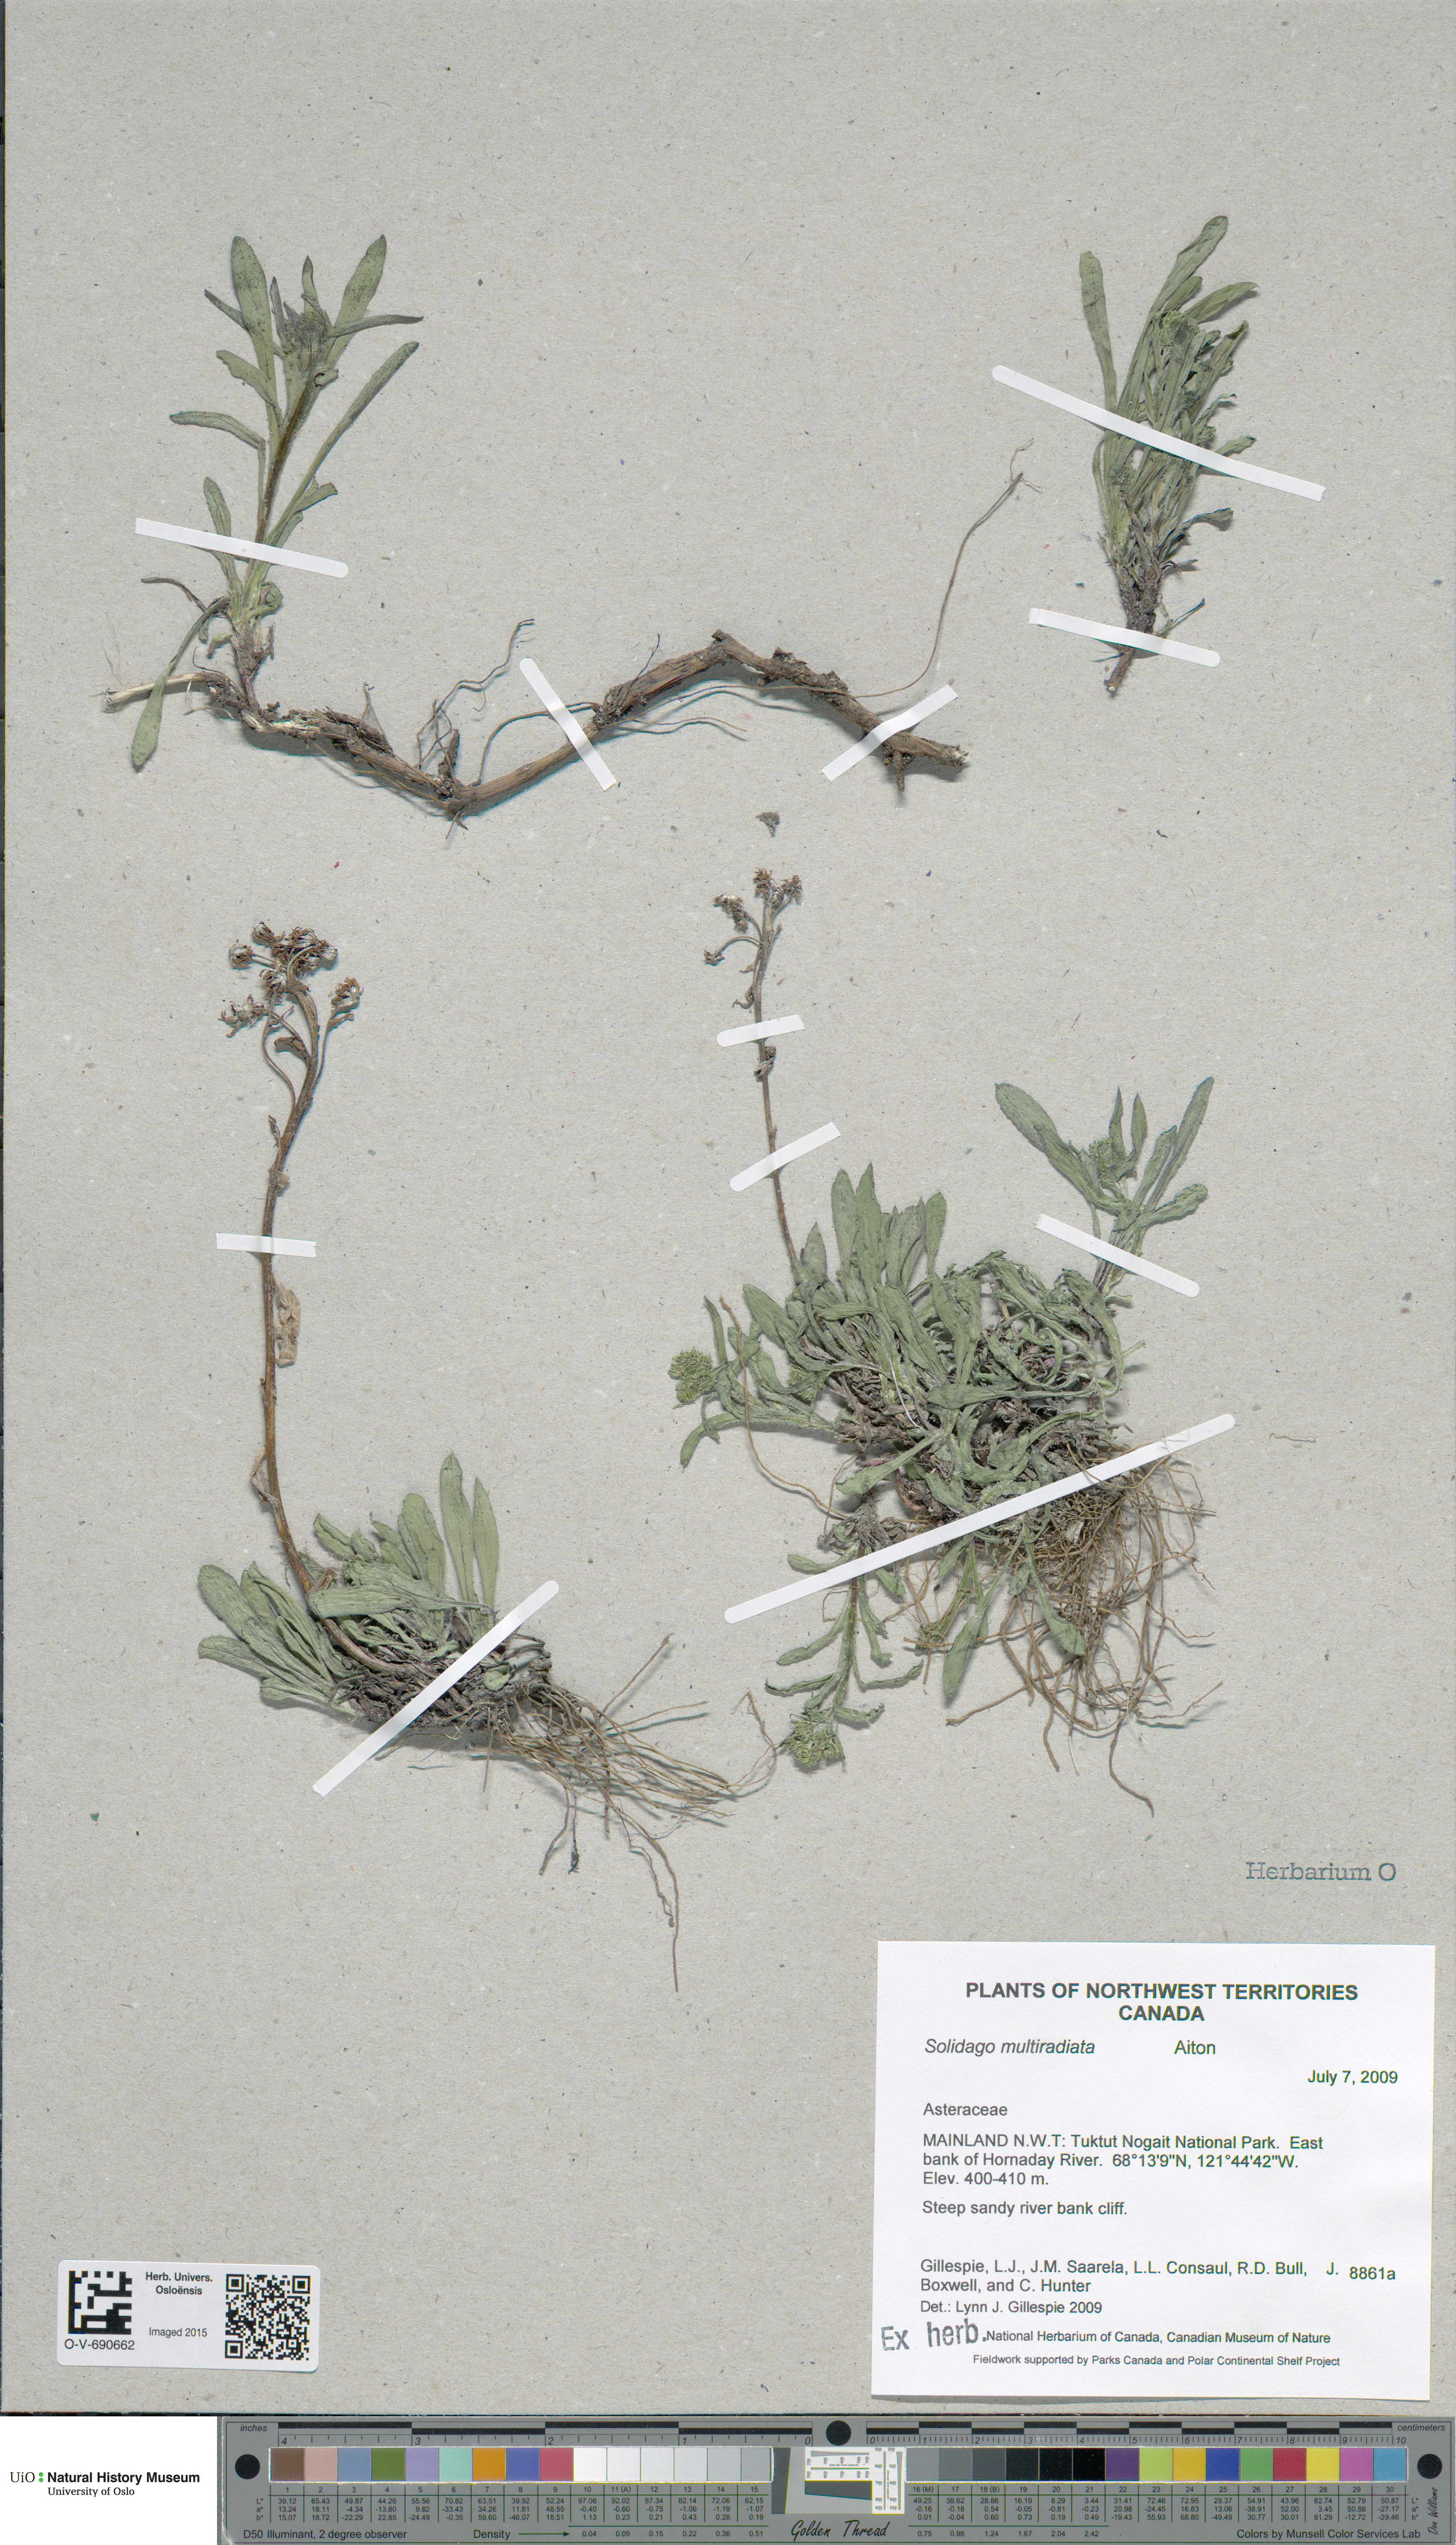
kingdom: Plantae
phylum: Tracheophyta
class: Magnoliopsida
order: Asterales
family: Asteraceae
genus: Solidago
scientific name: Solidago multiradiata
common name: Northern goldenrod
